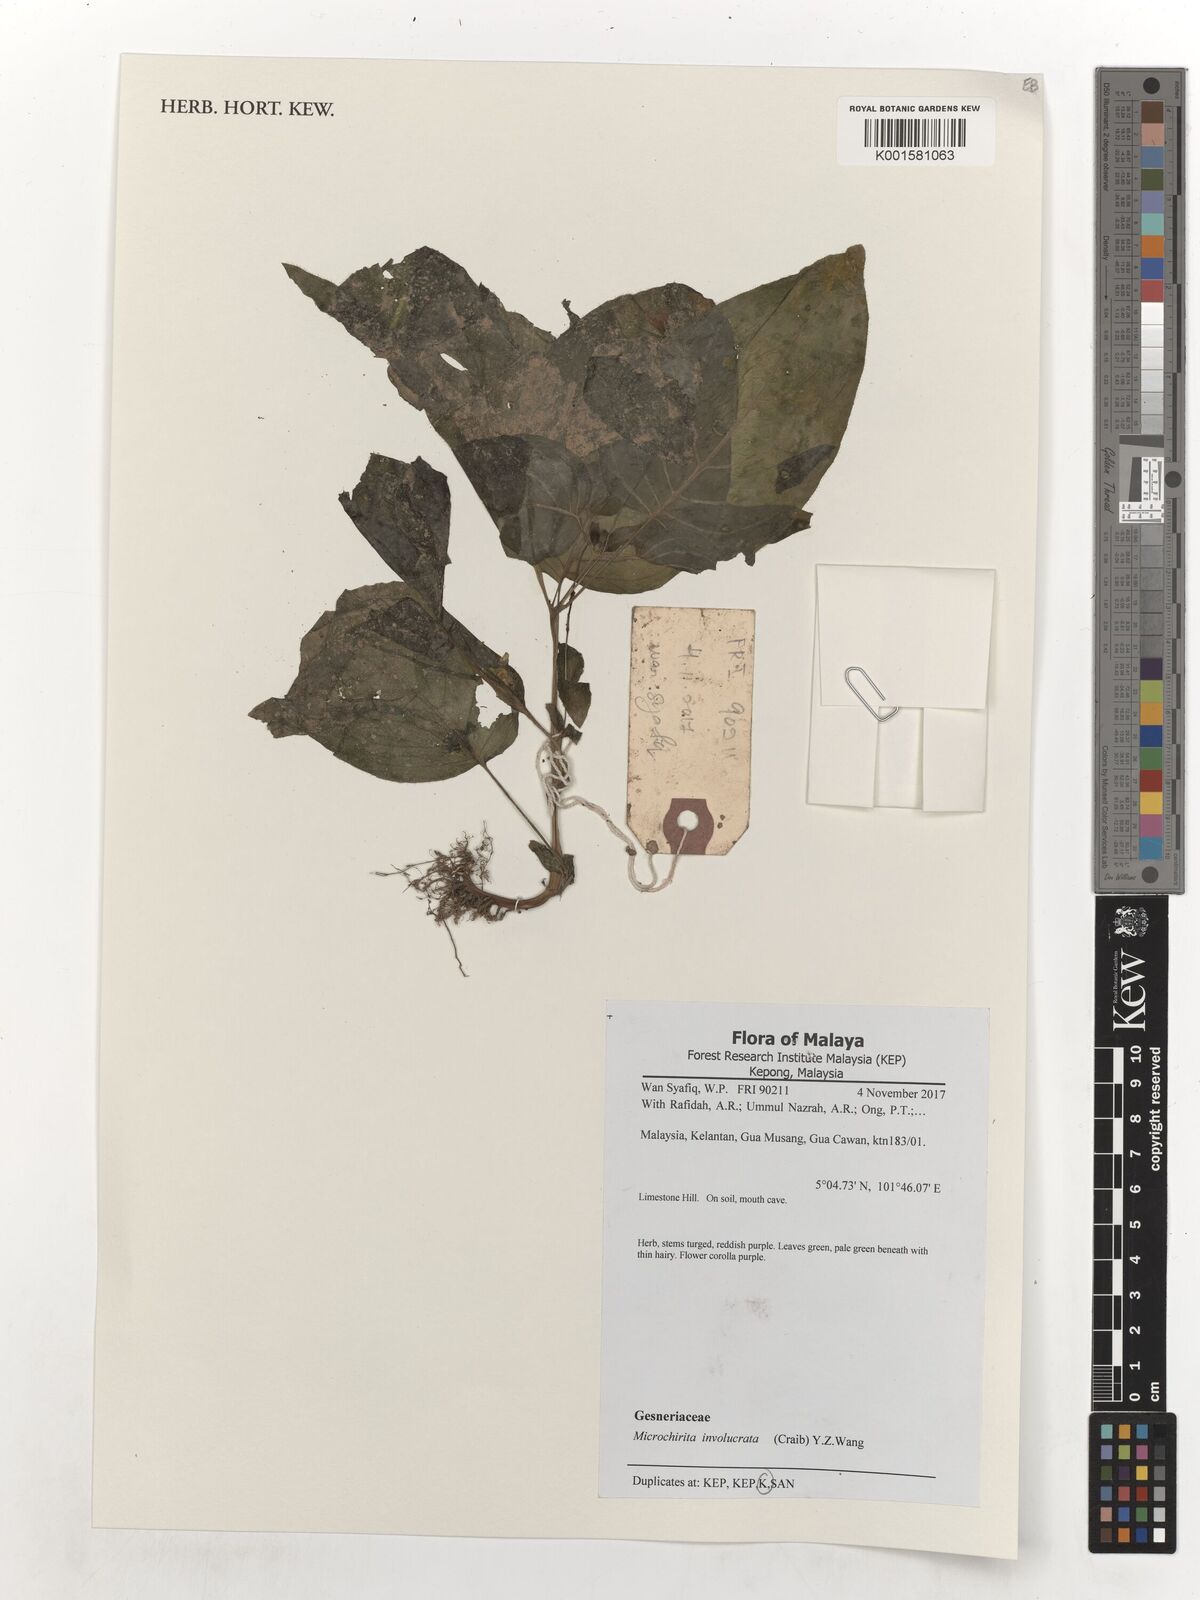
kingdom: Plantae
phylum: Tracheophyta
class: Magnoliopsida
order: Lamiales
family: Gesneriaceae
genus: Microchirita
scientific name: Microchirita involucrata
